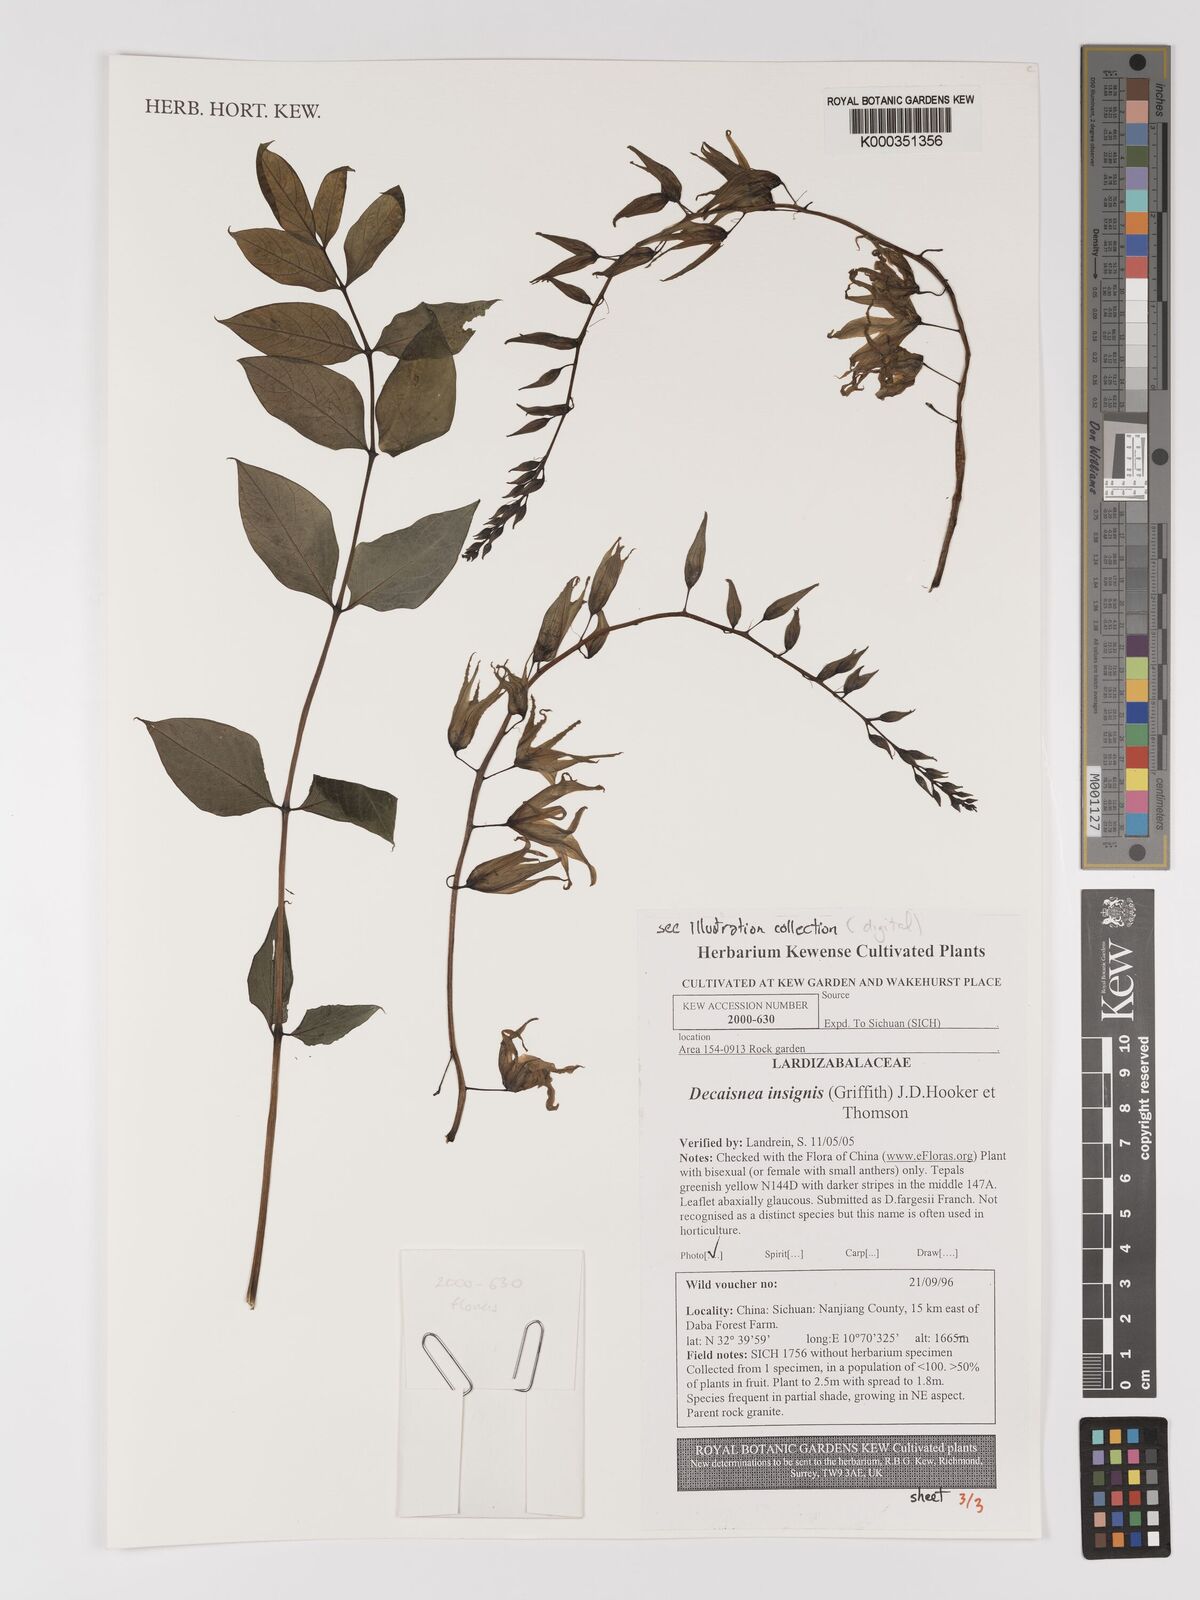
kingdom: Plantae
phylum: Tracheophyta
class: Magnoliopsida
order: Ranunculales
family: Lardizabalaceae
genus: Decaisnea
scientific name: Decaisnea insignis
